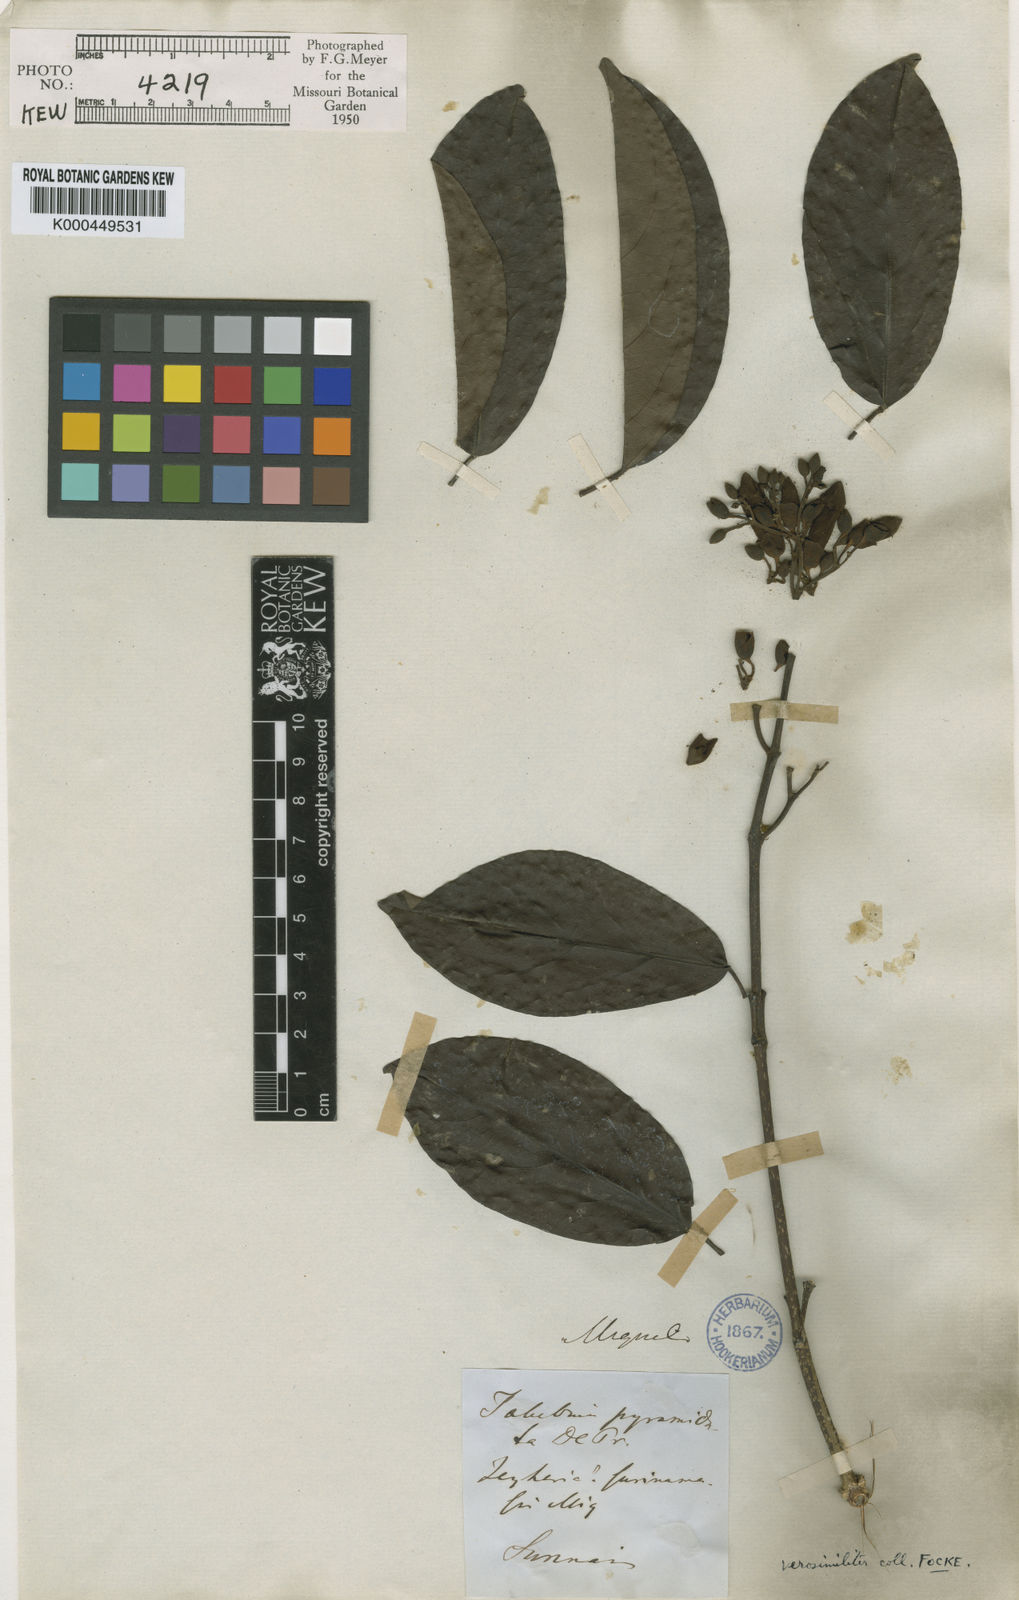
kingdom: Plantae
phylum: Tracheophyta
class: Magnoliopsida
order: Lamiales
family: Bignoniaceae
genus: Tanaecium
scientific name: Tanaecium pyramidatum
